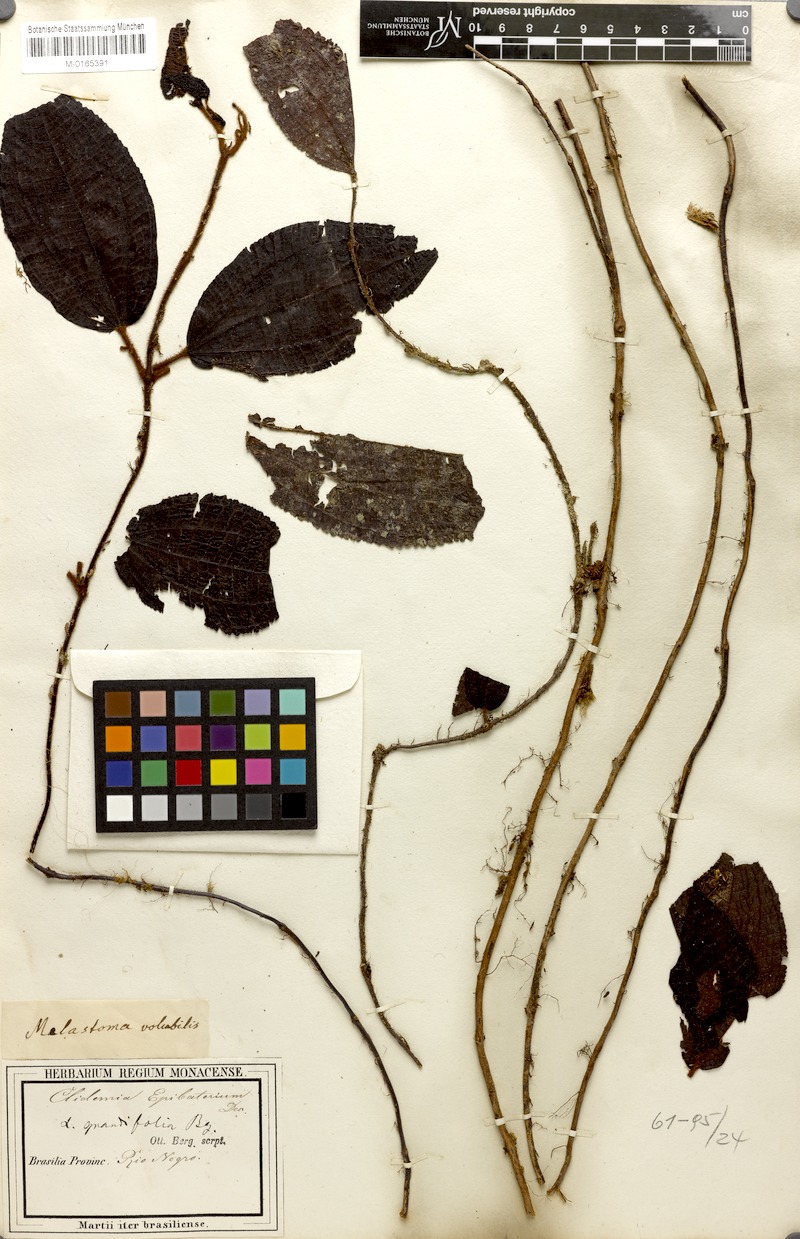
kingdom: Plantae
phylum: Tracheophyta
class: Magnoliopsida
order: Myrtales
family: Melastomataceae
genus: Miconia
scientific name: Miconia epibaterium
